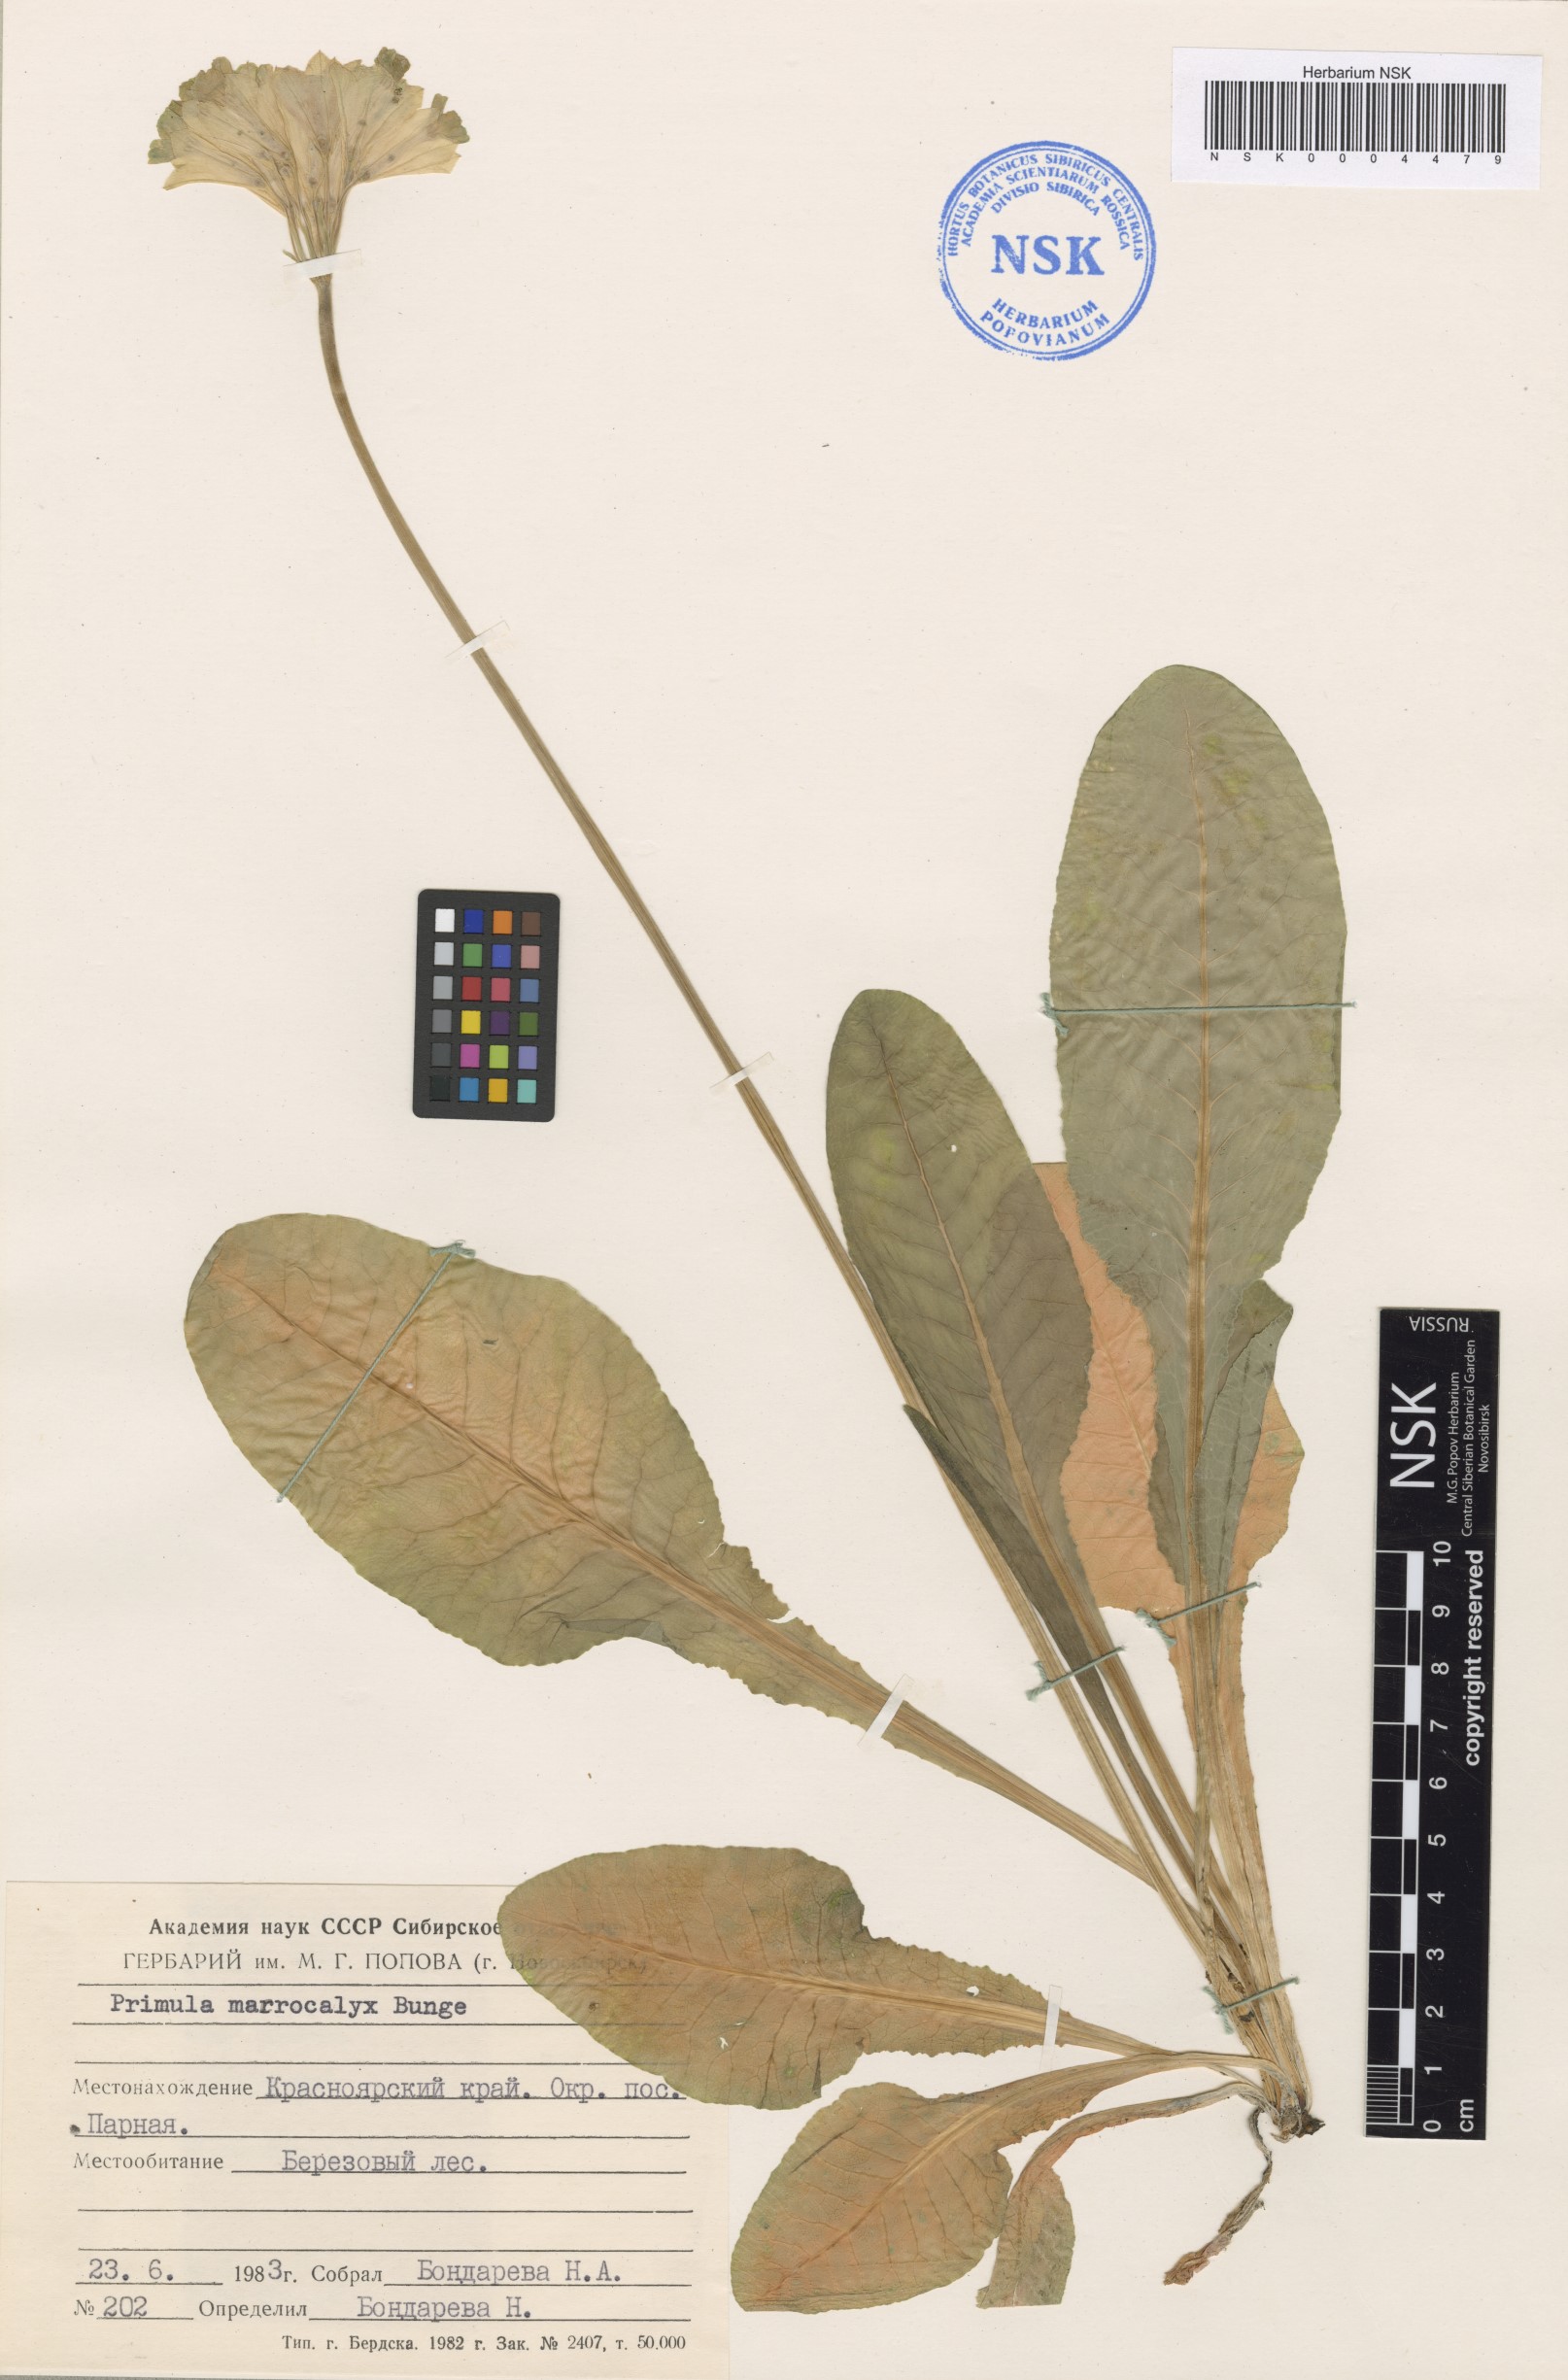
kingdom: Plantae
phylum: Tracheophyta
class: Magnoliopsida
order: Ericales
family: Primulaceae
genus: Primula
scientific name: Primula veris
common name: Cowslip
